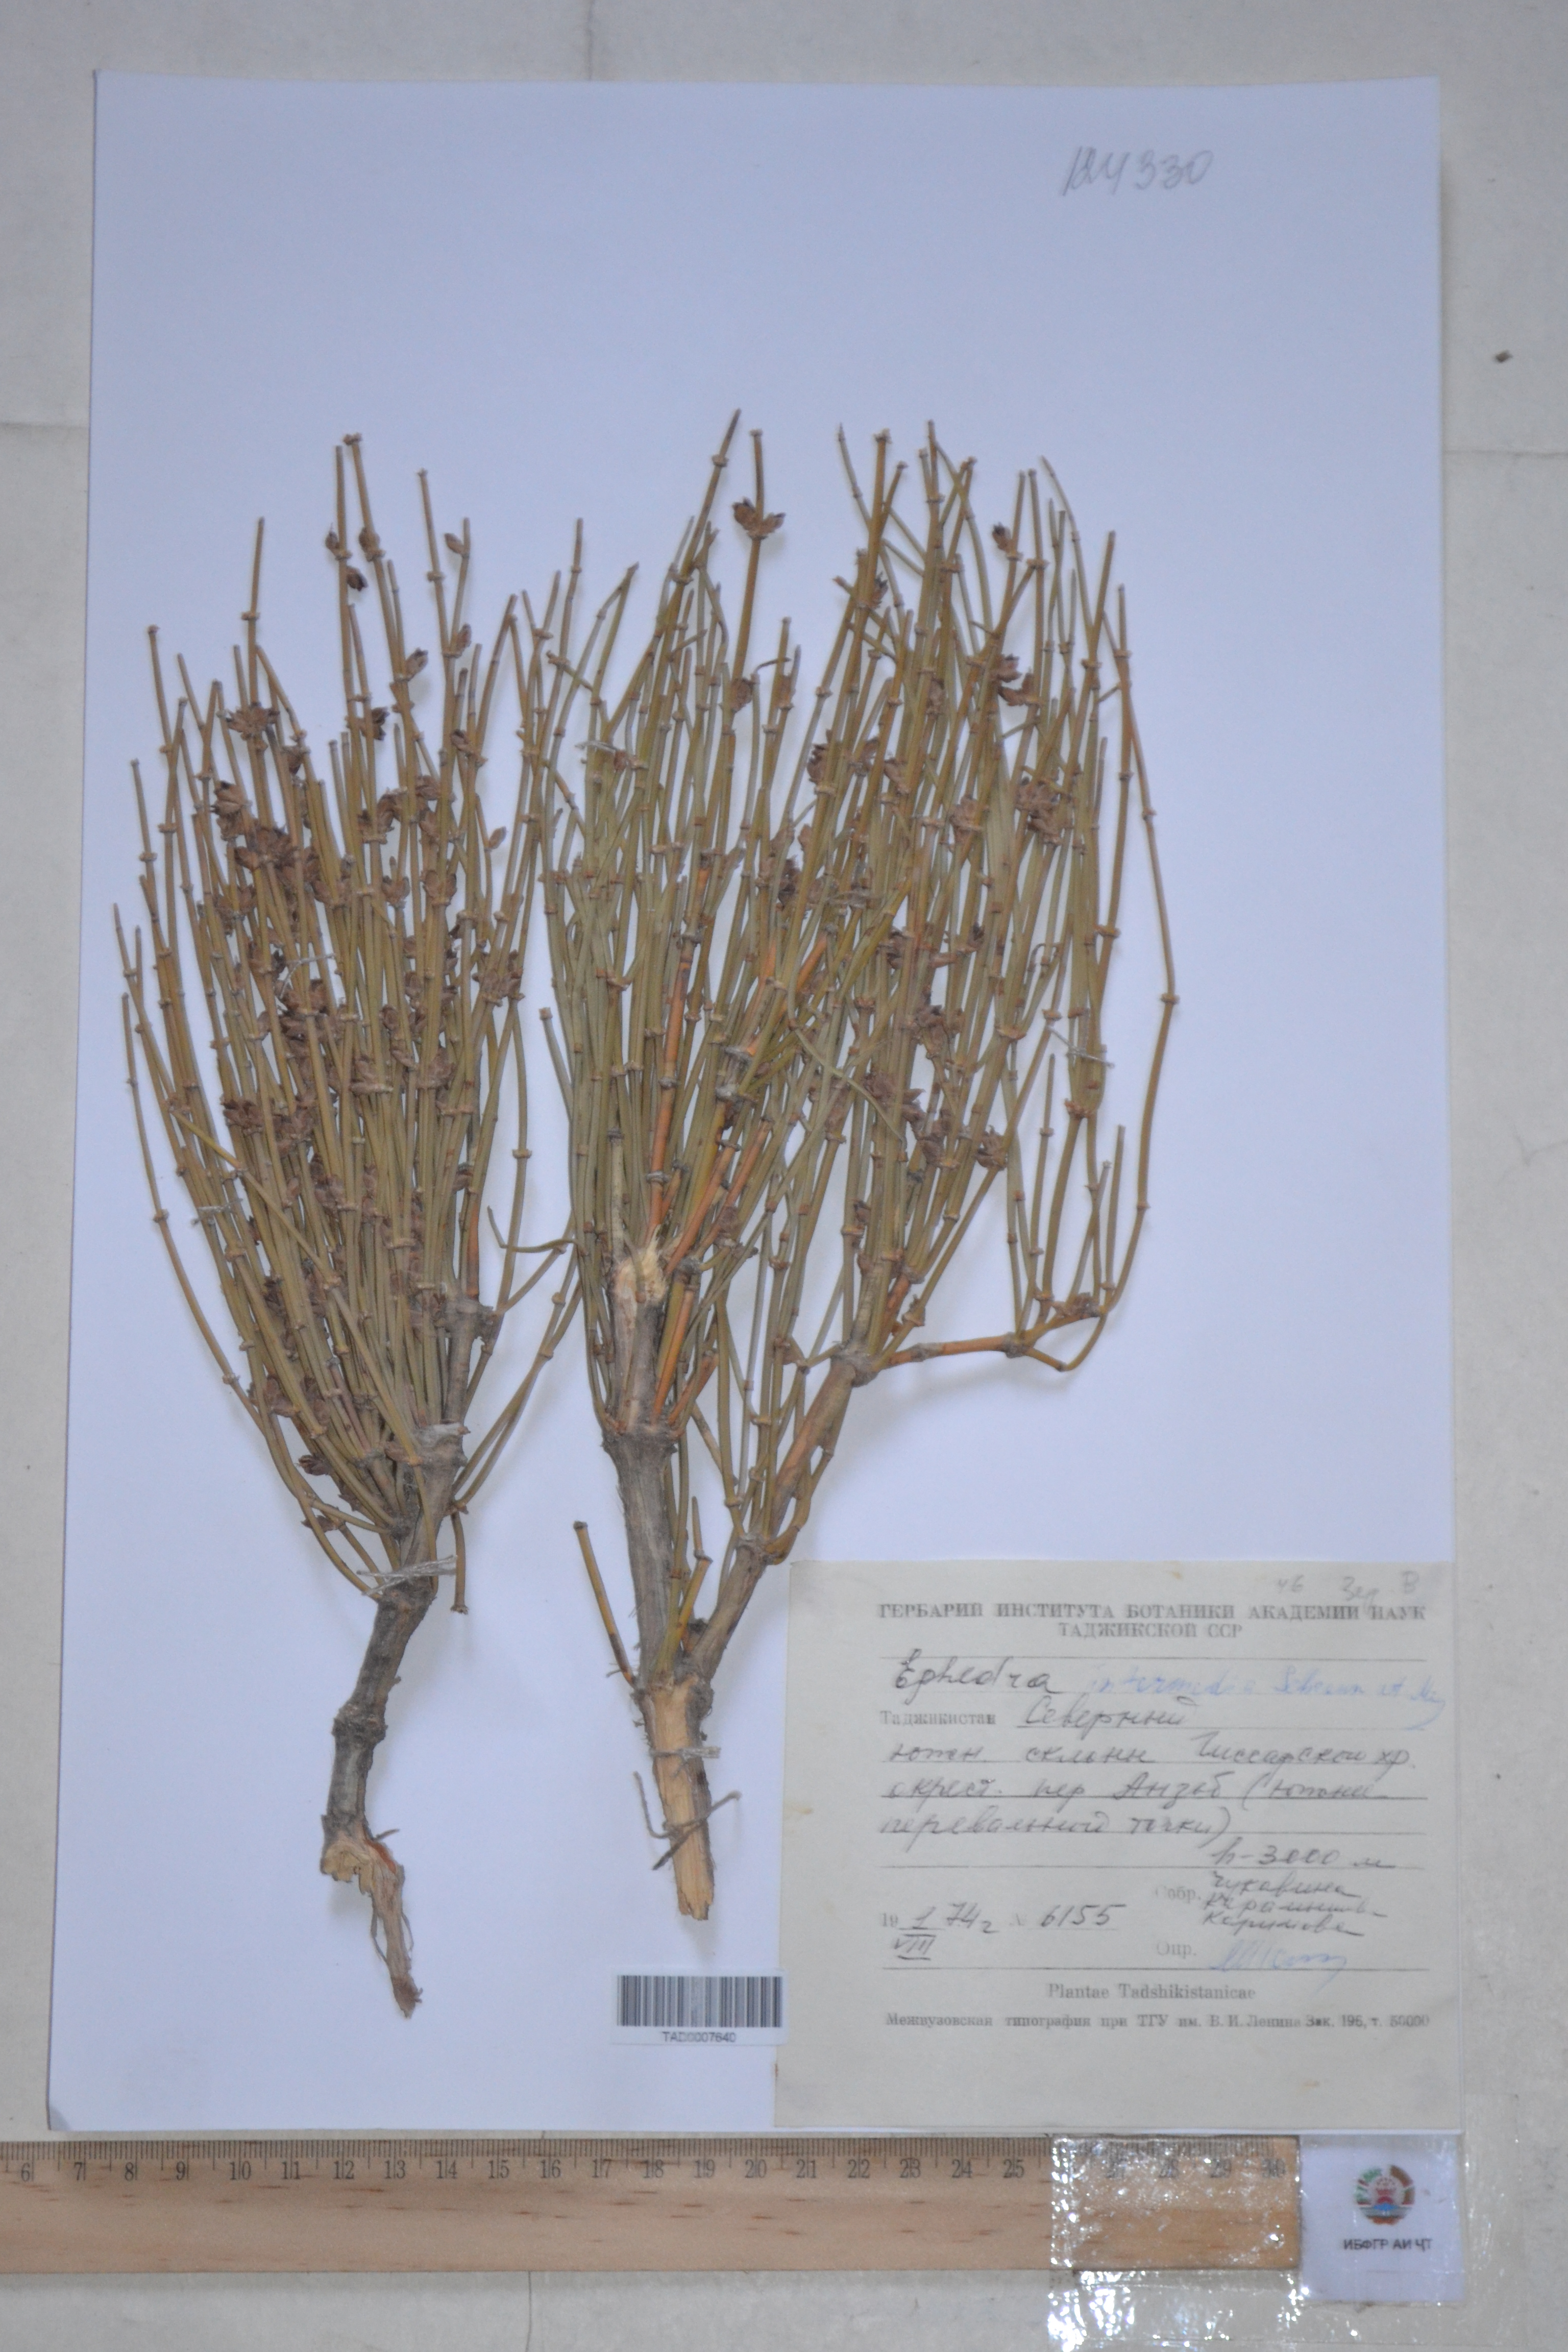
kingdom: Plantae
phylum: Tracheophyta
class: Gnetopsida
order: Ephedrales
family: Ephedraceae
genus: Ephedra
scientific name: Ephedra intermedia
